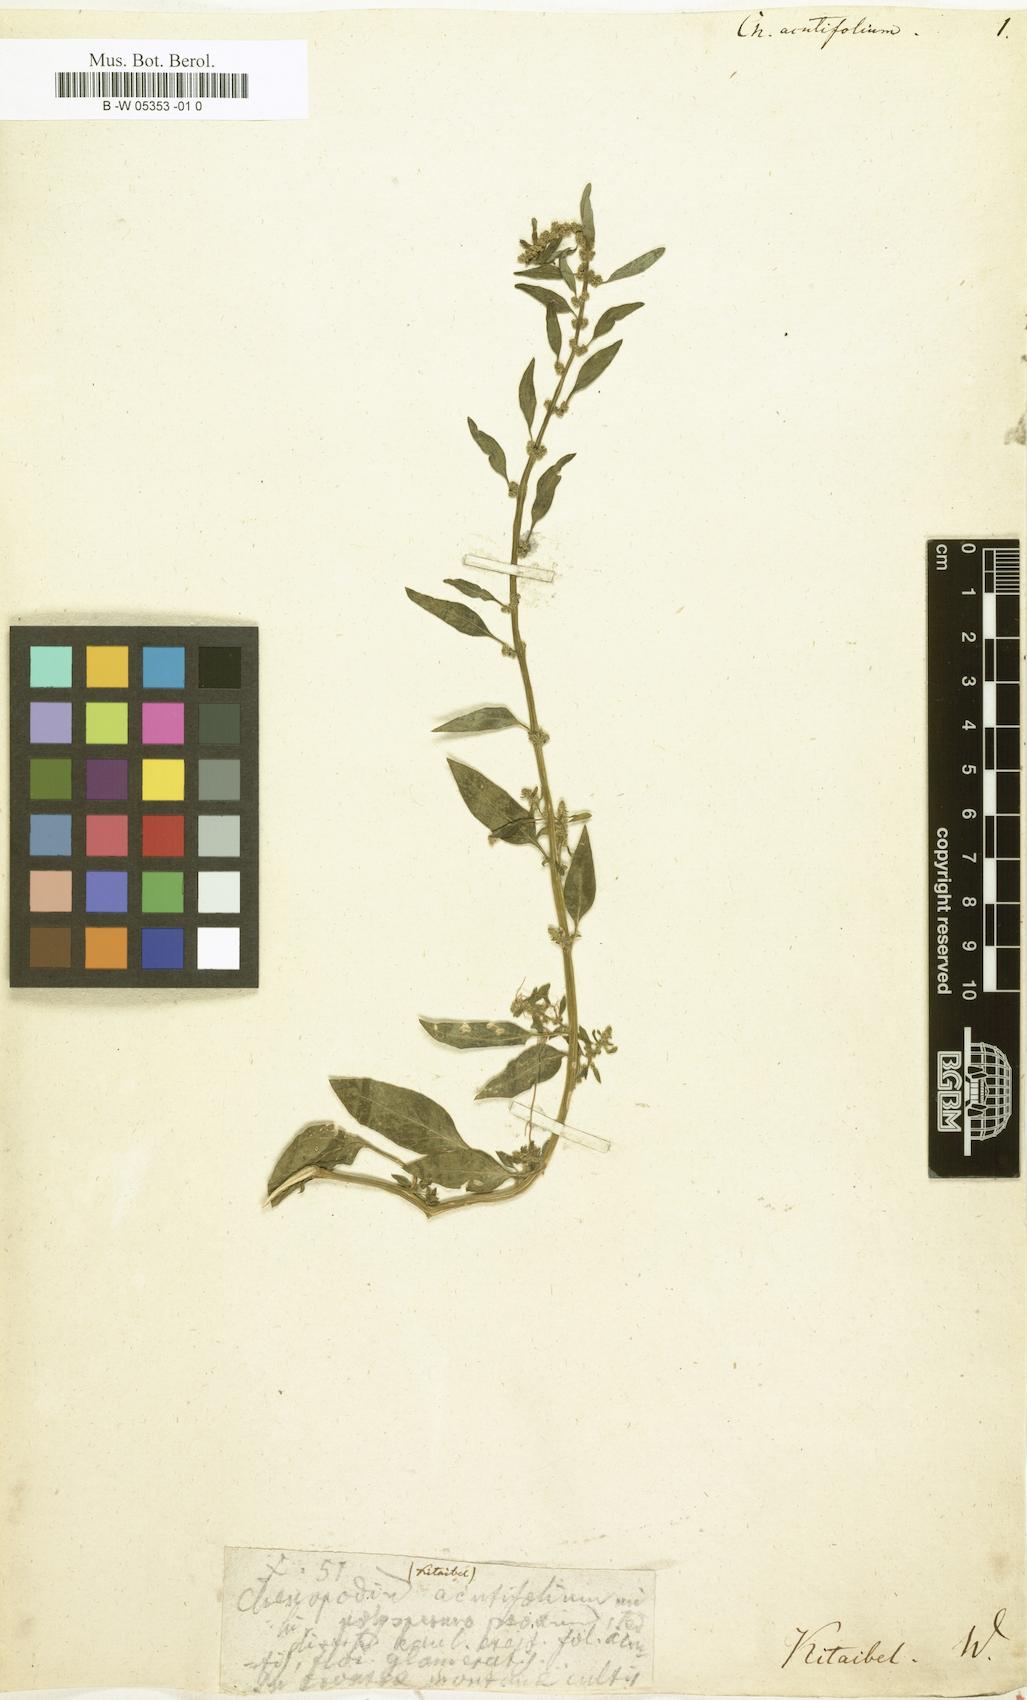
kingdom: Plantae
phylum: Tracheophyta
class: Magnoliopsida
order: Caryophyllales
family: Amaranthaceae
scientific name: Amaranthaceae
